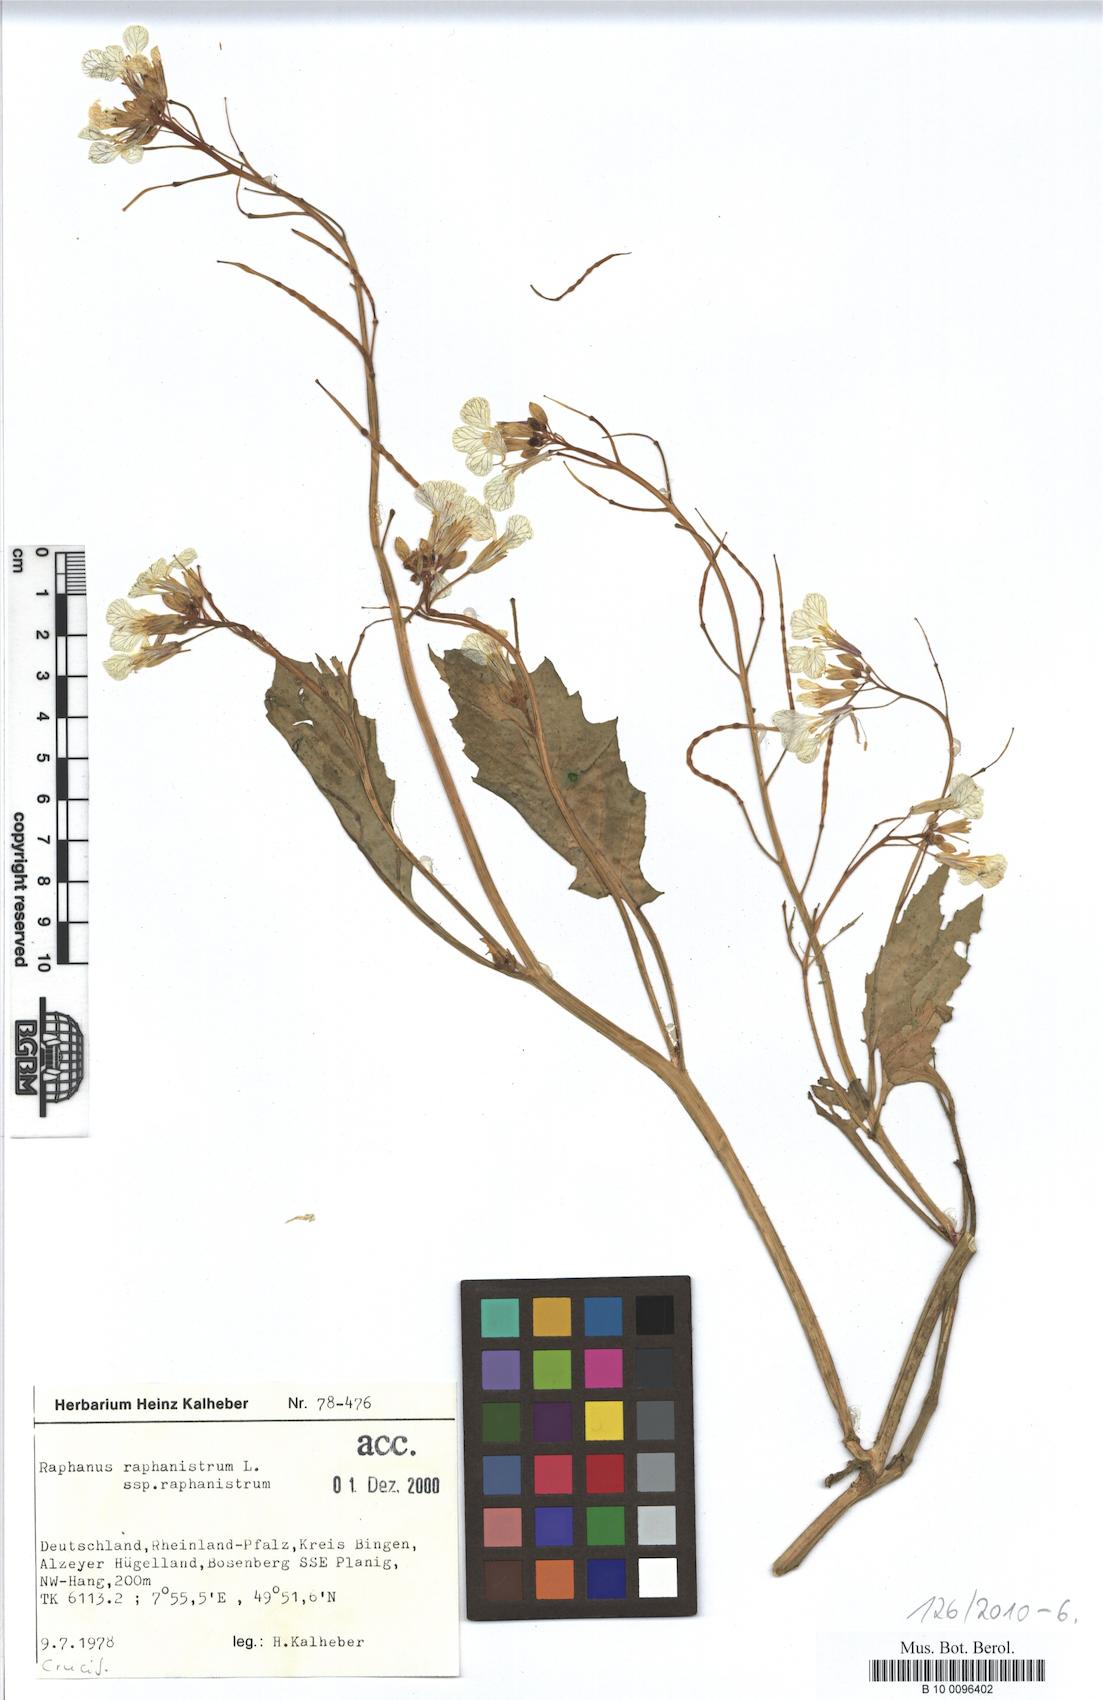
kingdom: Plantae
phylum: Tracheophyta
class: Magnoliopsida
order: Brassicales
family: Brassicaceae
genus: Raphanus
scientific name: Raphanus raphanistrum
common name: Wild radish
